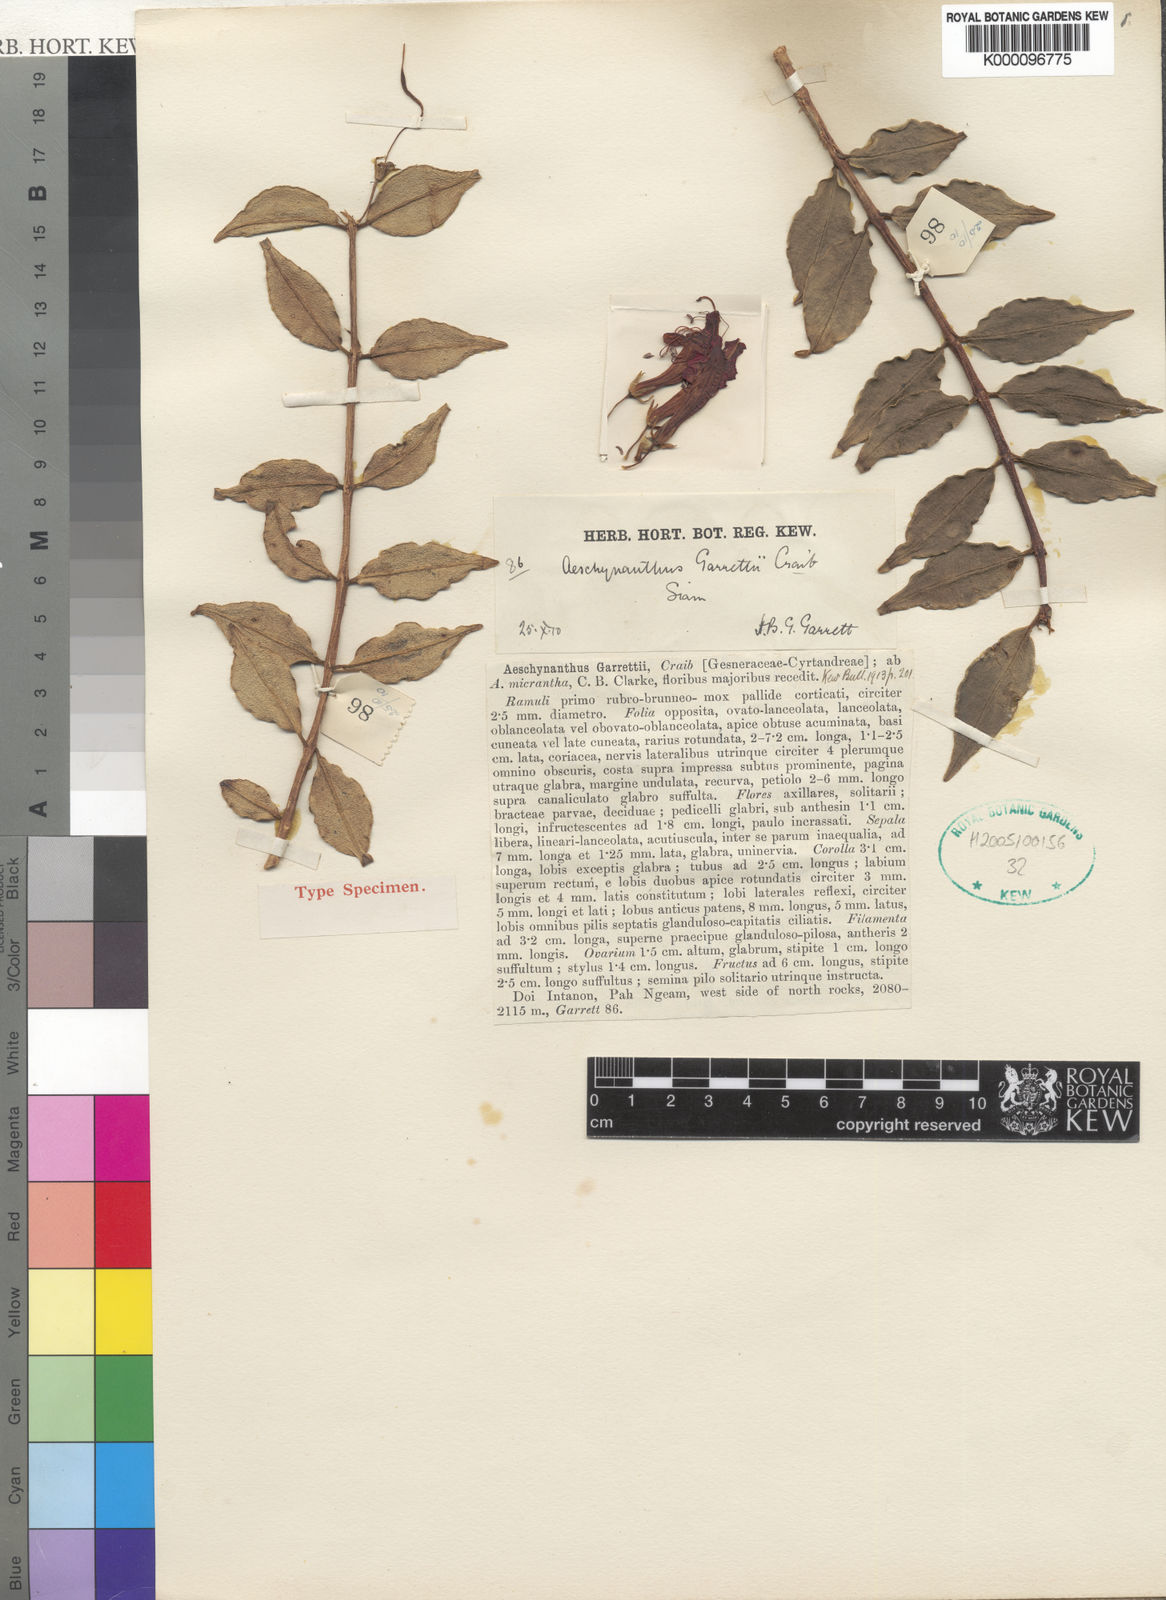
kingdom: Plantae
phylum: Tracheophyta
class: Magnoliopsida
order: Lamiales
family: Gesneriaceae
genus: Aeschynanthus
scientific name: Aeschynanthus garrettii
